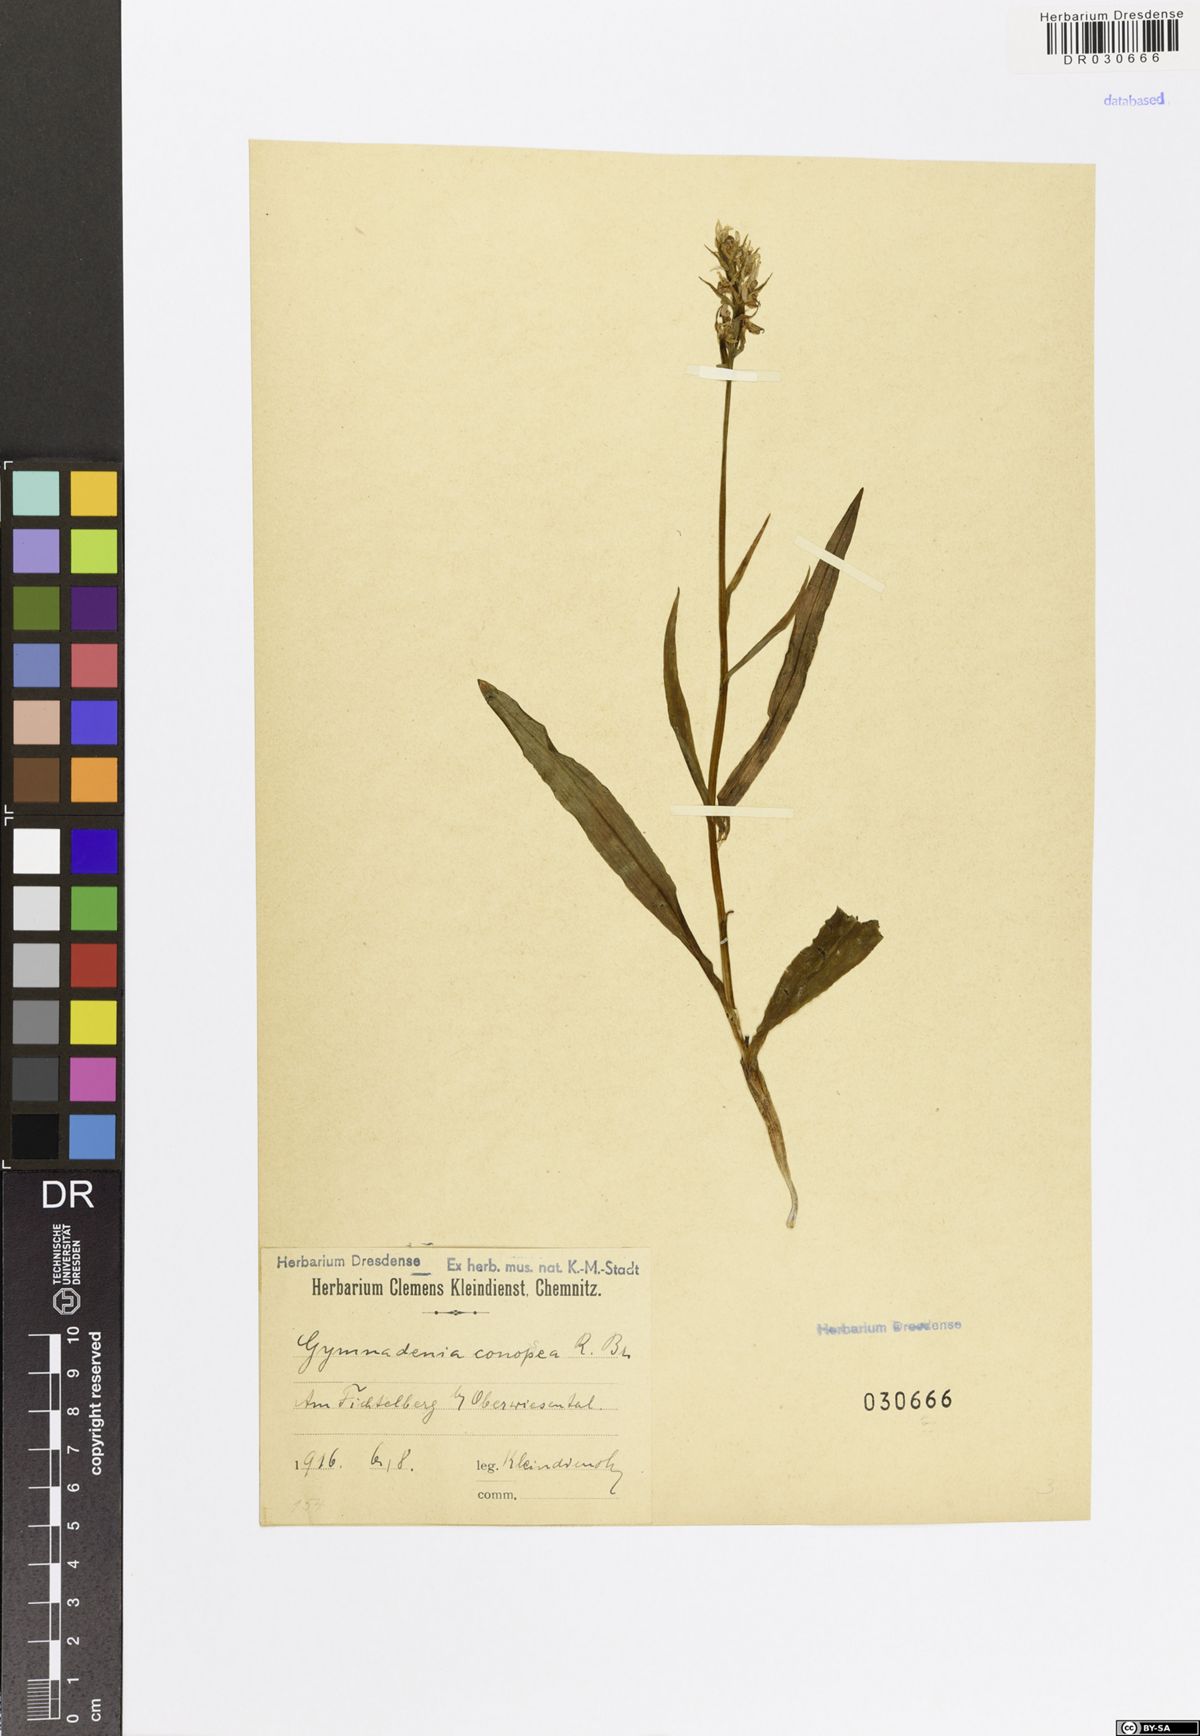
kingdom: Plantae
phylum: Tracheophyta
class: Liliopsida
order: Asparagales
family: Orchidaceae
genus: Gymnadenia
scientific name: Gymnadenia conopsea
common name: Fragrant orchid
